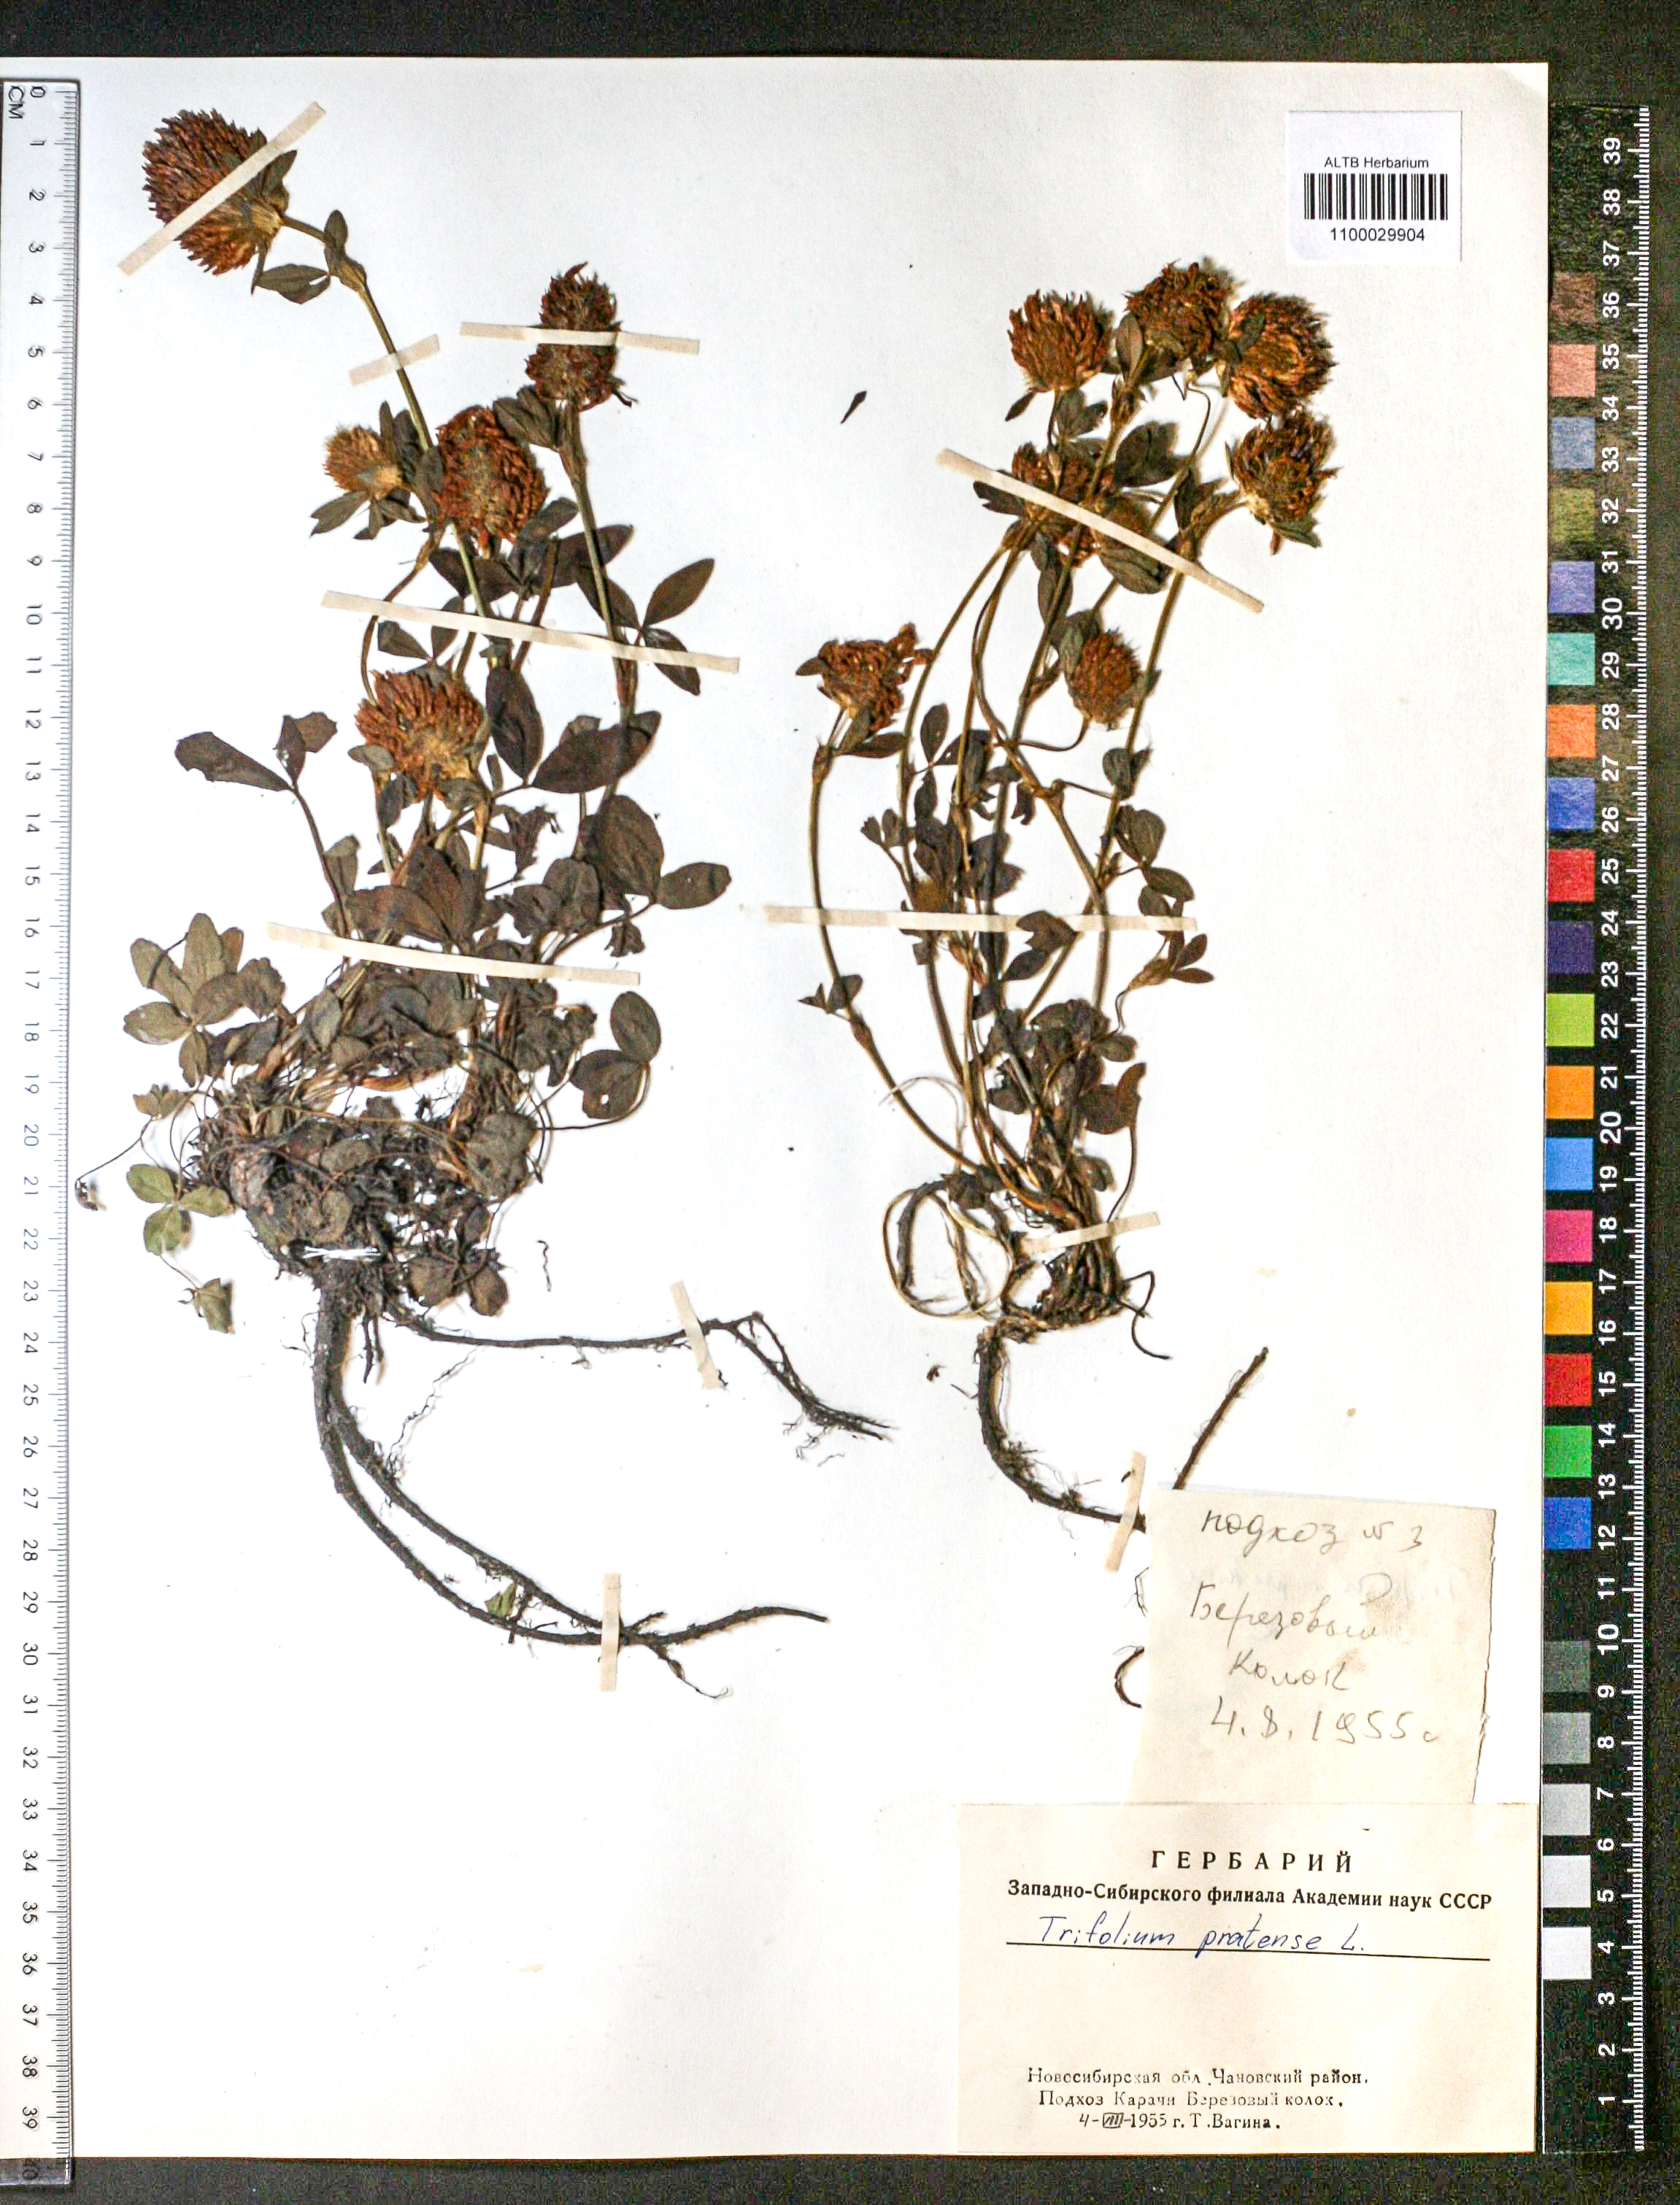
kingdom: Plantae
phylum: Tracheophyta
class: Magnoliopsida
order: Fabales
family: Fabaceae
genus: Trifolium
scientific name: Trifolium pratense
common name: Red clover
